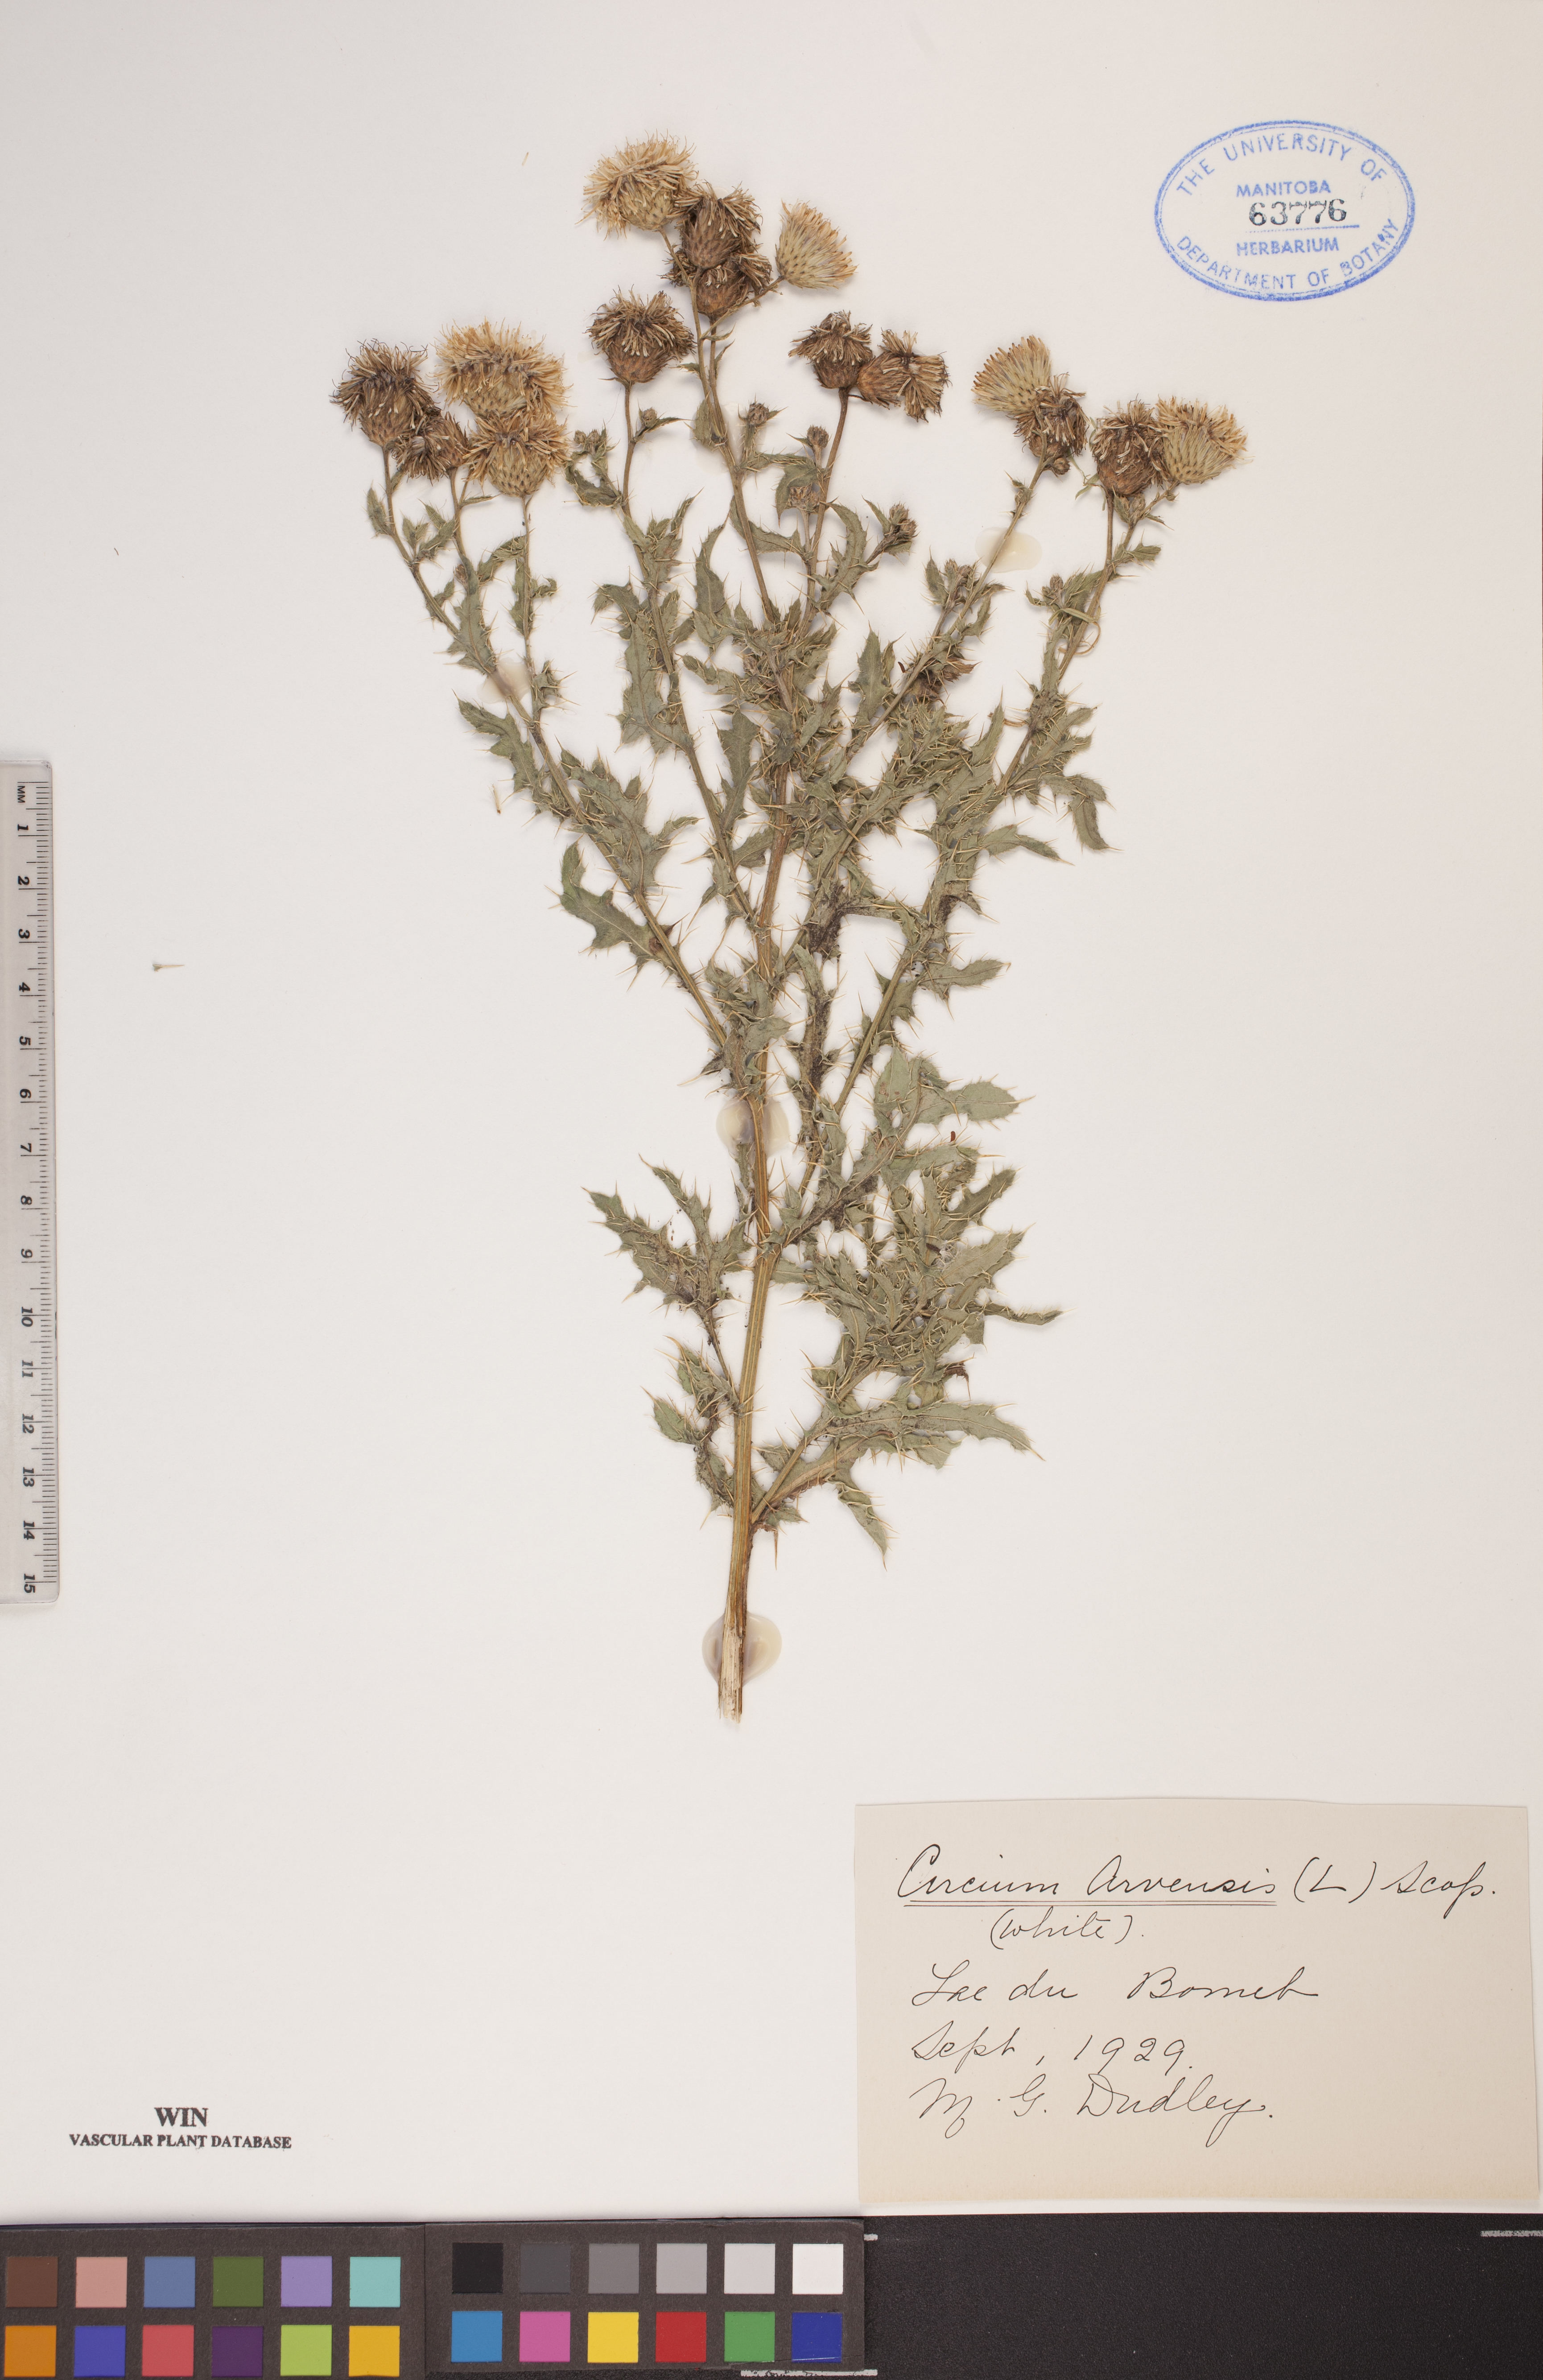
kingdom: Plantae
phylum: Tracheophyta
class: Magnoliopsida
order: Asterales
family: Asteraceae
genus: Cirsium
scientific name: Cirsium arvense
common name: Creeping thistle
